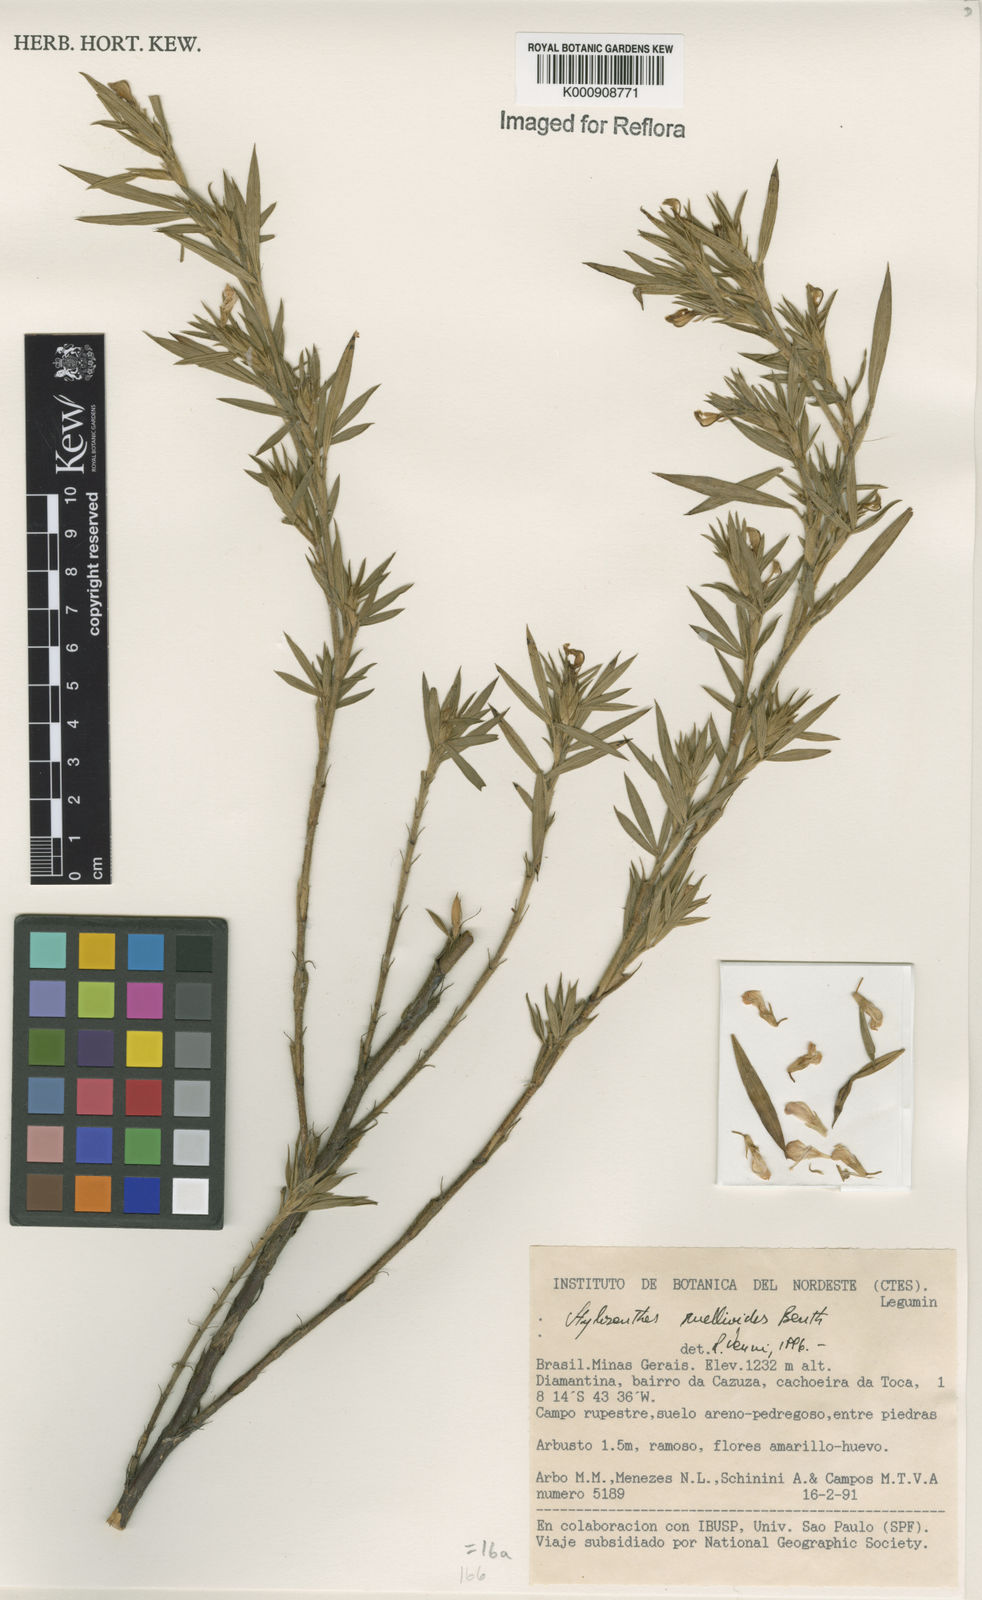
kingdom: Plantae
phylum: Tracheophyta
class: Magnoliopsida
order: Fabales
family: Fabaceae
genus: Stylosanthes
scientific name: Stylosanthes ruellioides
